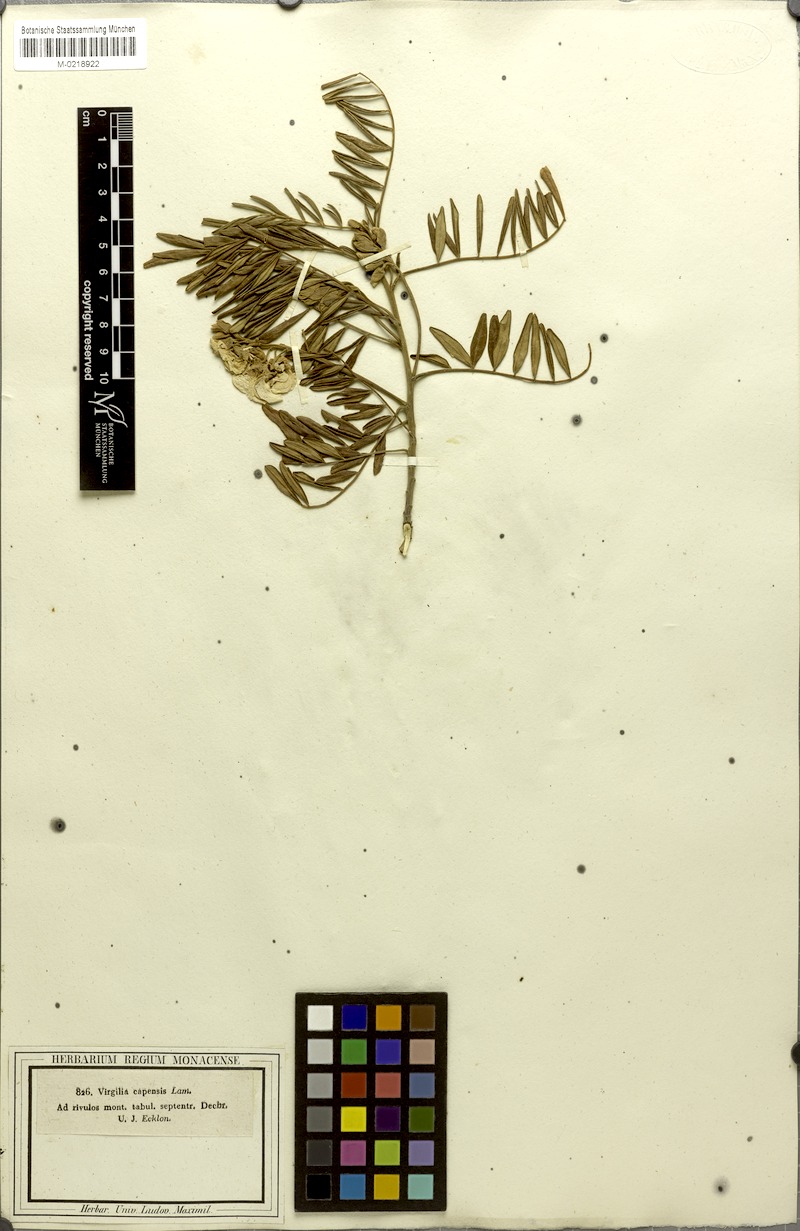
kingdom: Plantae
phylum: Tracheophyta
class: Magnoliopsida
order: Fabales
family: Fabaceae
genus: Virgilia
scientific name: Virgilia oroboides
